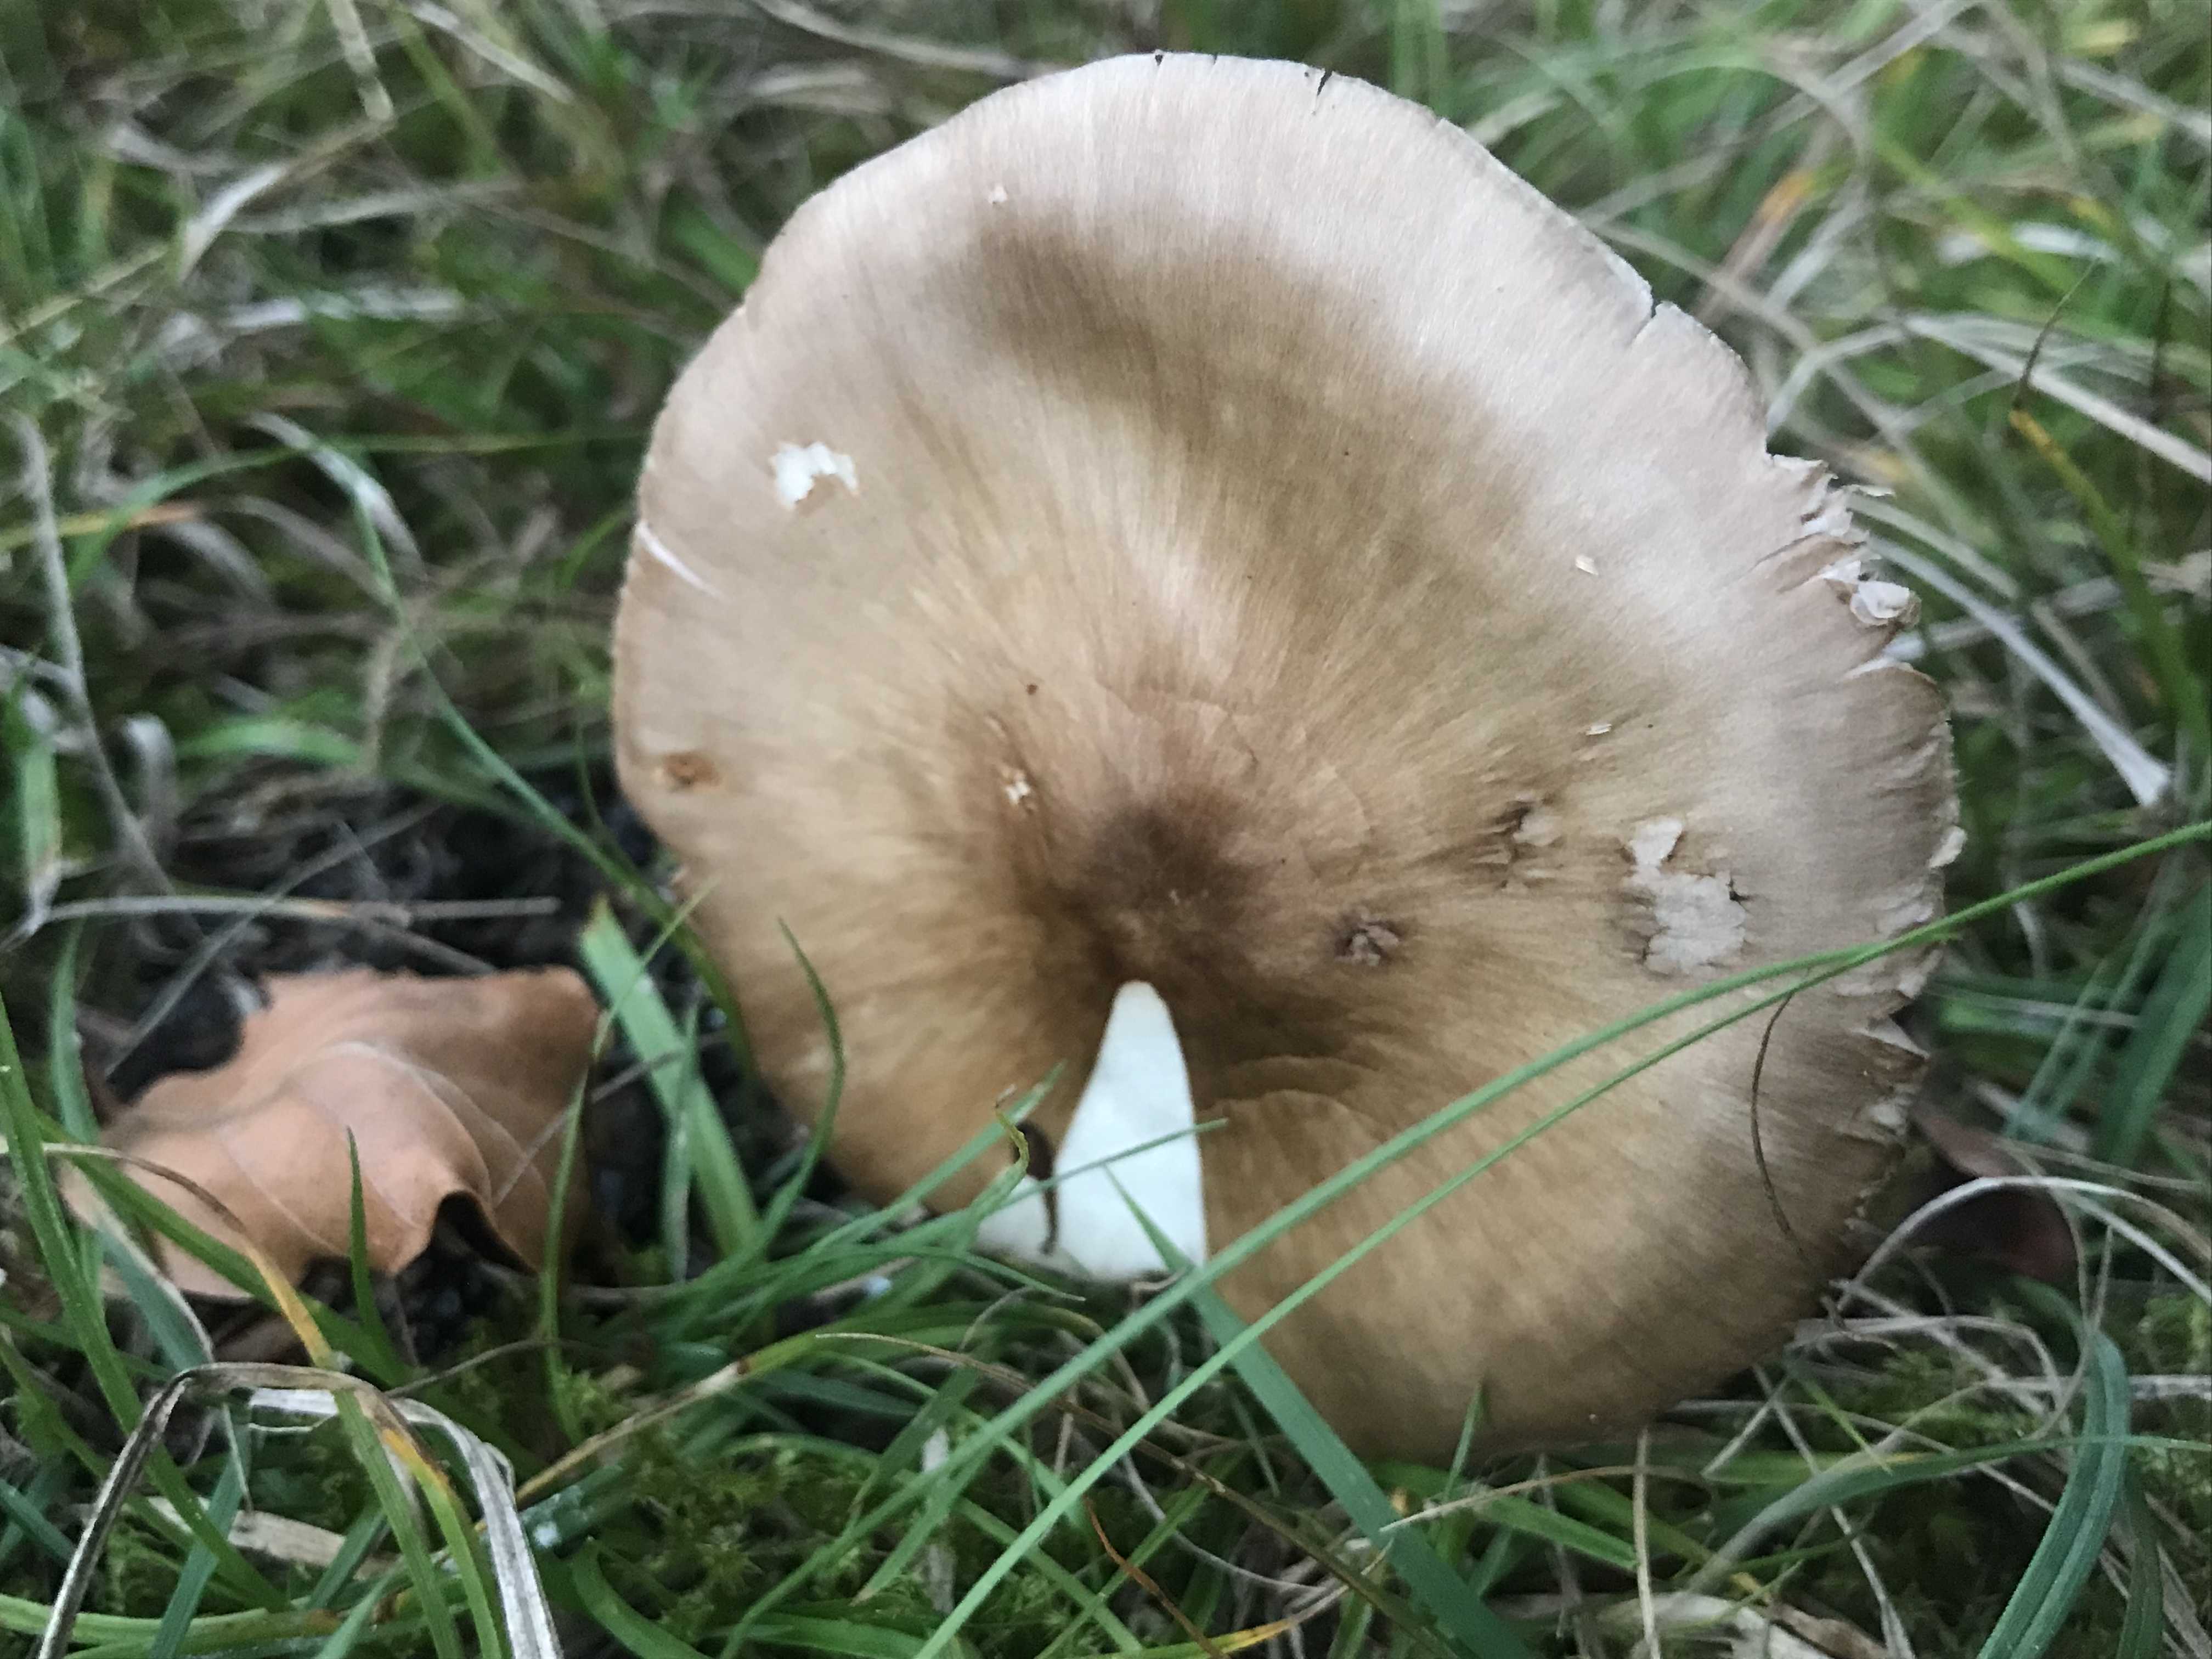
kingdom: Fungi
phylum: Basidiomycota
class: Agaricomycetes
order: Agaricales
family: Pluteaceae
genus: Pluteus
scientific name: Pluteus cervinus
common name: sodfarvet skærmhat
